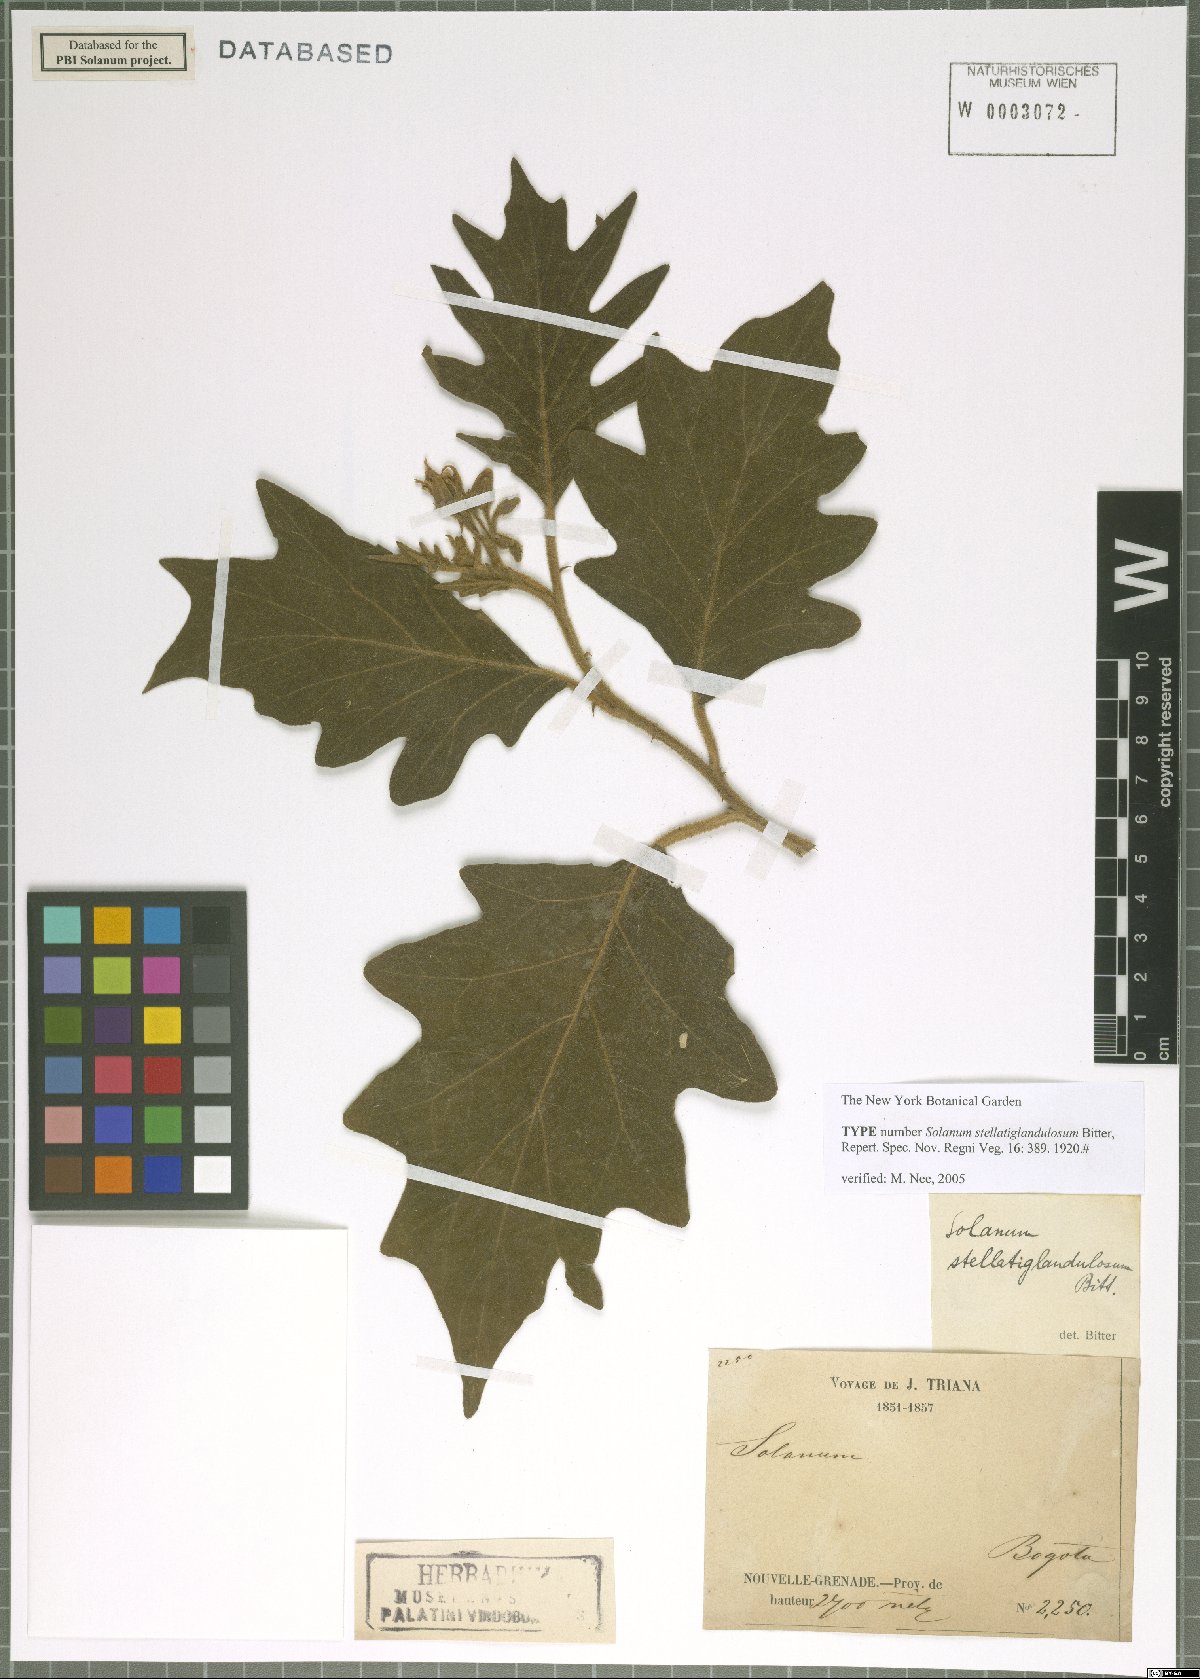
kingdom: Plantae
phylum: Tracheophyta
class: Magnoliopsida
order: Solanales
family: Solanaceae
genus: Solanum
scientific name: Solanum stellatiglandulosum
